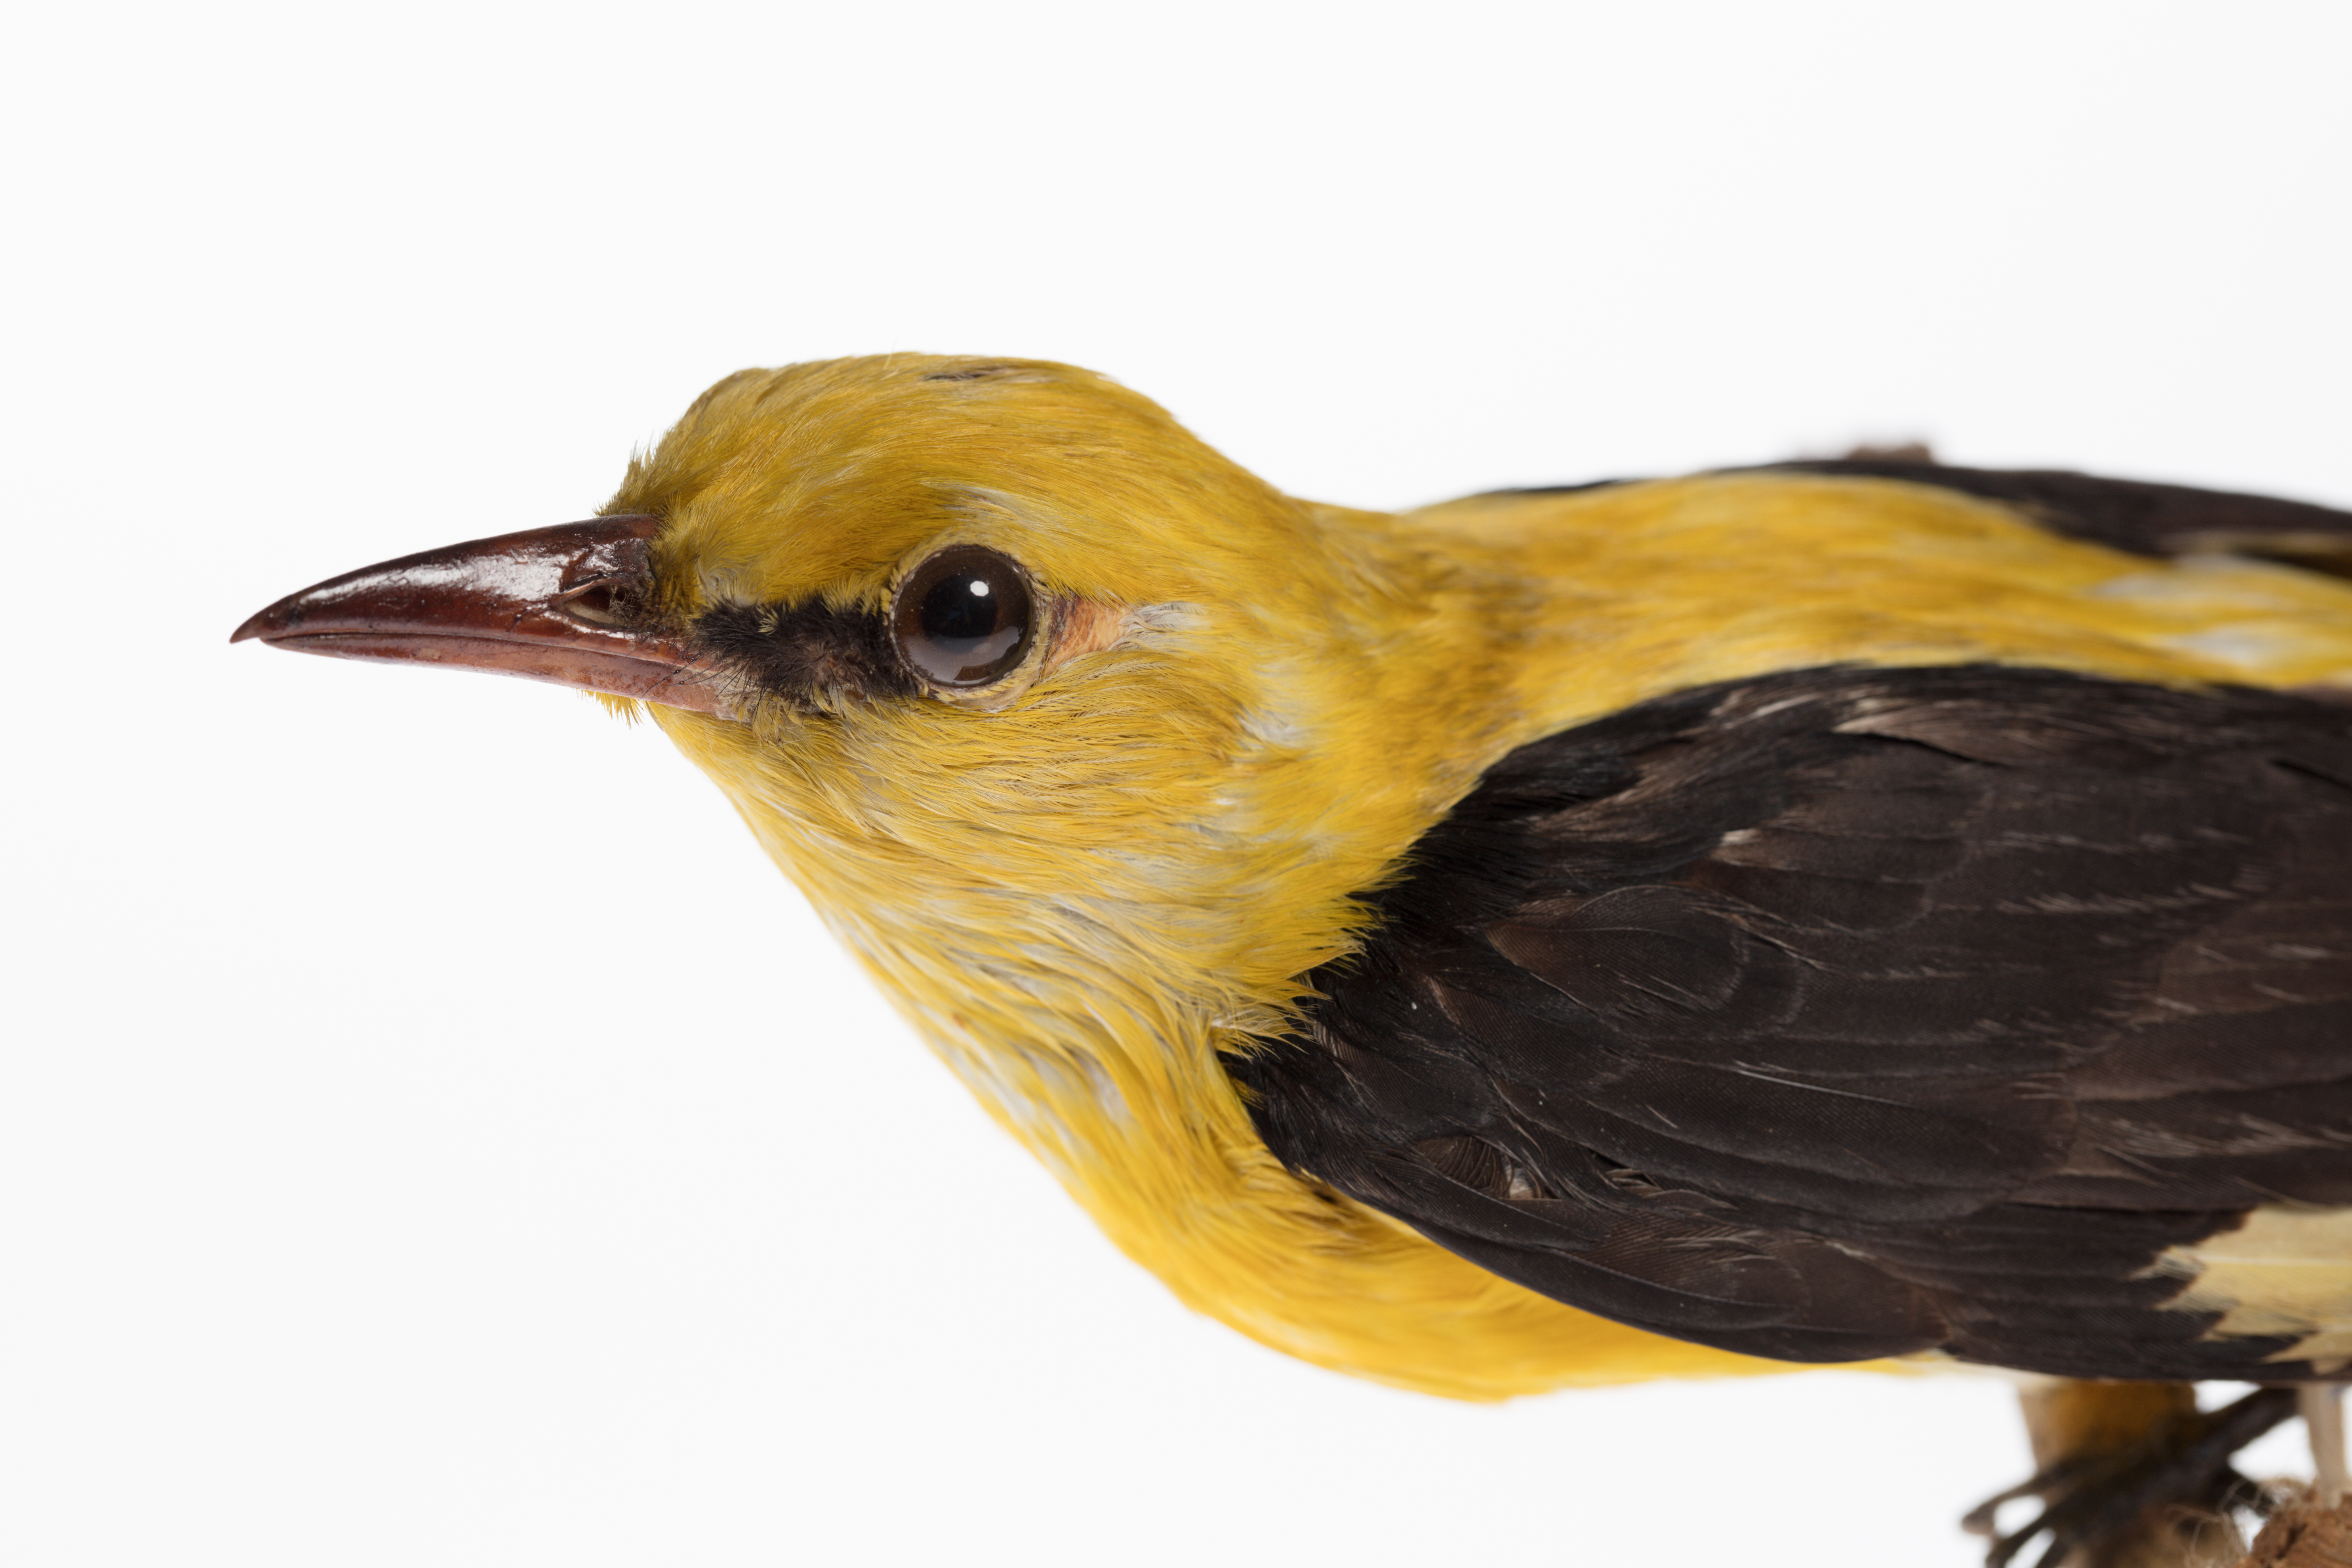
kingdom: Animalia
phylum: Chordata
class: Aves
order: Passeriformes
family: Oriolidae
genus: Oriolus
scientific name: Oriolus oriolus
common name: Eurasian golden oriole
